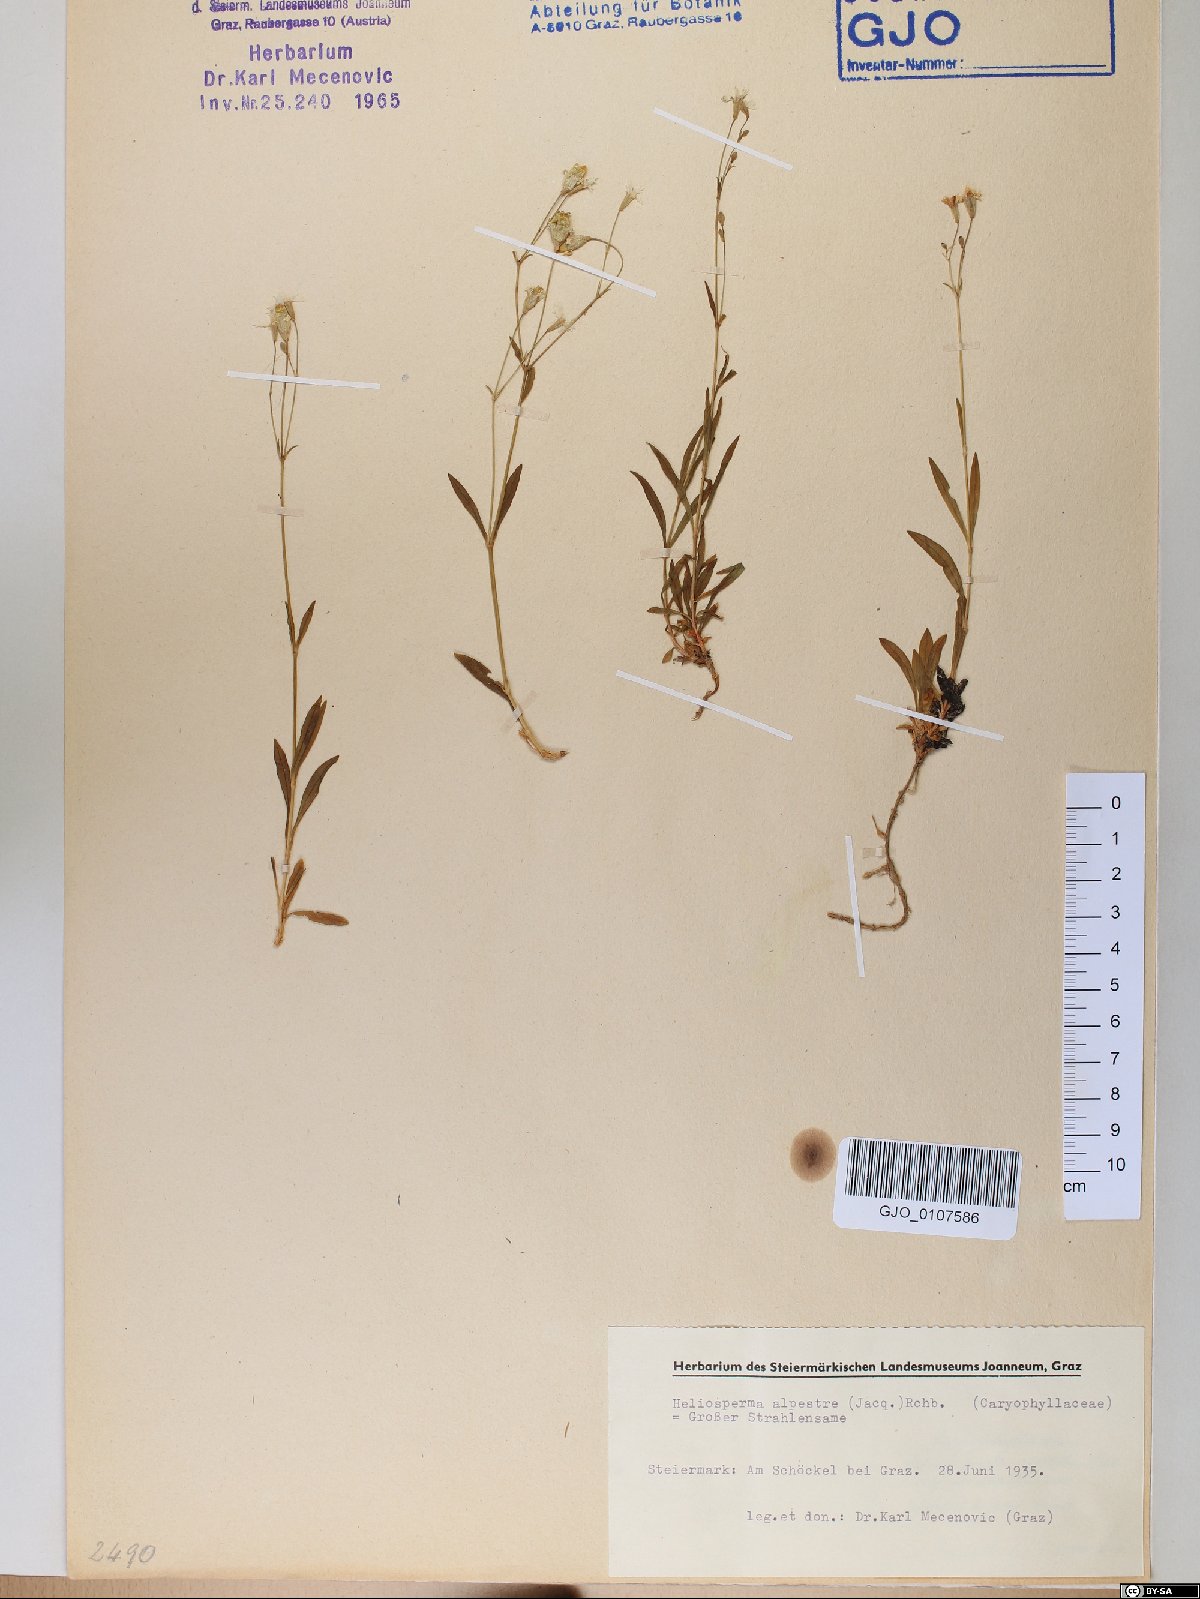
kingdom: Plantae
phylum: Tracheophyta
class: Magnoliopsida
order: Caryophyllales
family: Caryophyllaceae
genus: Heliosperma
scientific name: Heliosperma alpestre
